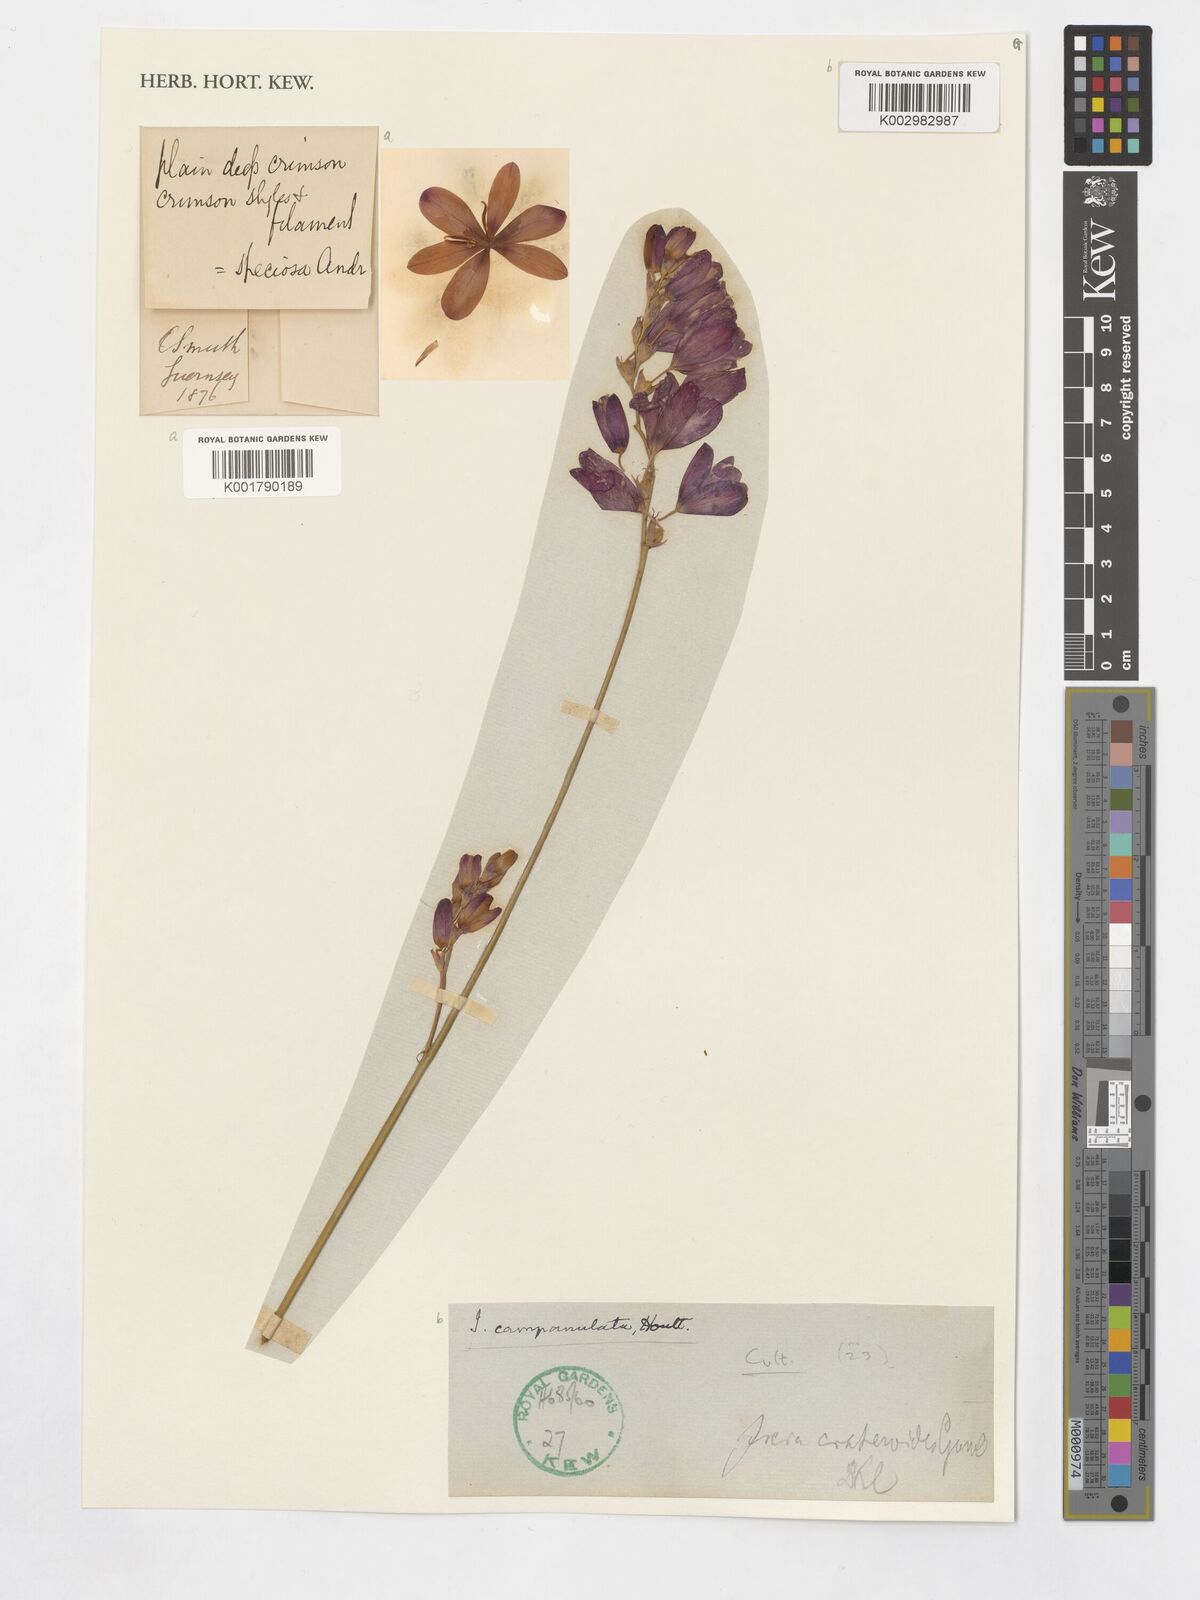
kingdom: Plantae
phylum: Tracheophyta
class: Liliopsida
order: Asparagales
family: Iridaceae
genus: Ixia
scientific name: Ixia campanulata
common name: Red corn-lily
